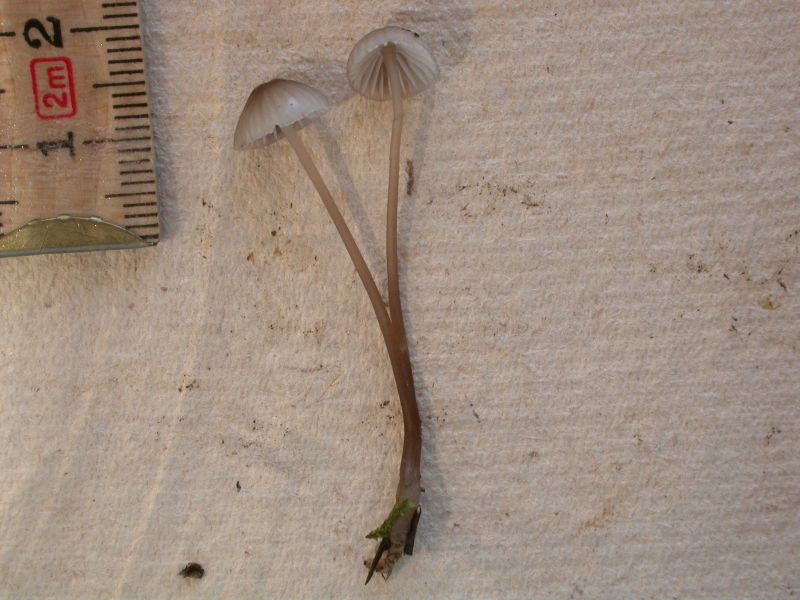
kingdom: Fungi
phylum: Basidiomycota
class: Agaricomycetes
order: Agaricales
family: Mycenaceae
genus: Mycena
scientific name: Mycena galopus
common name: hvidmælket huesvamp
